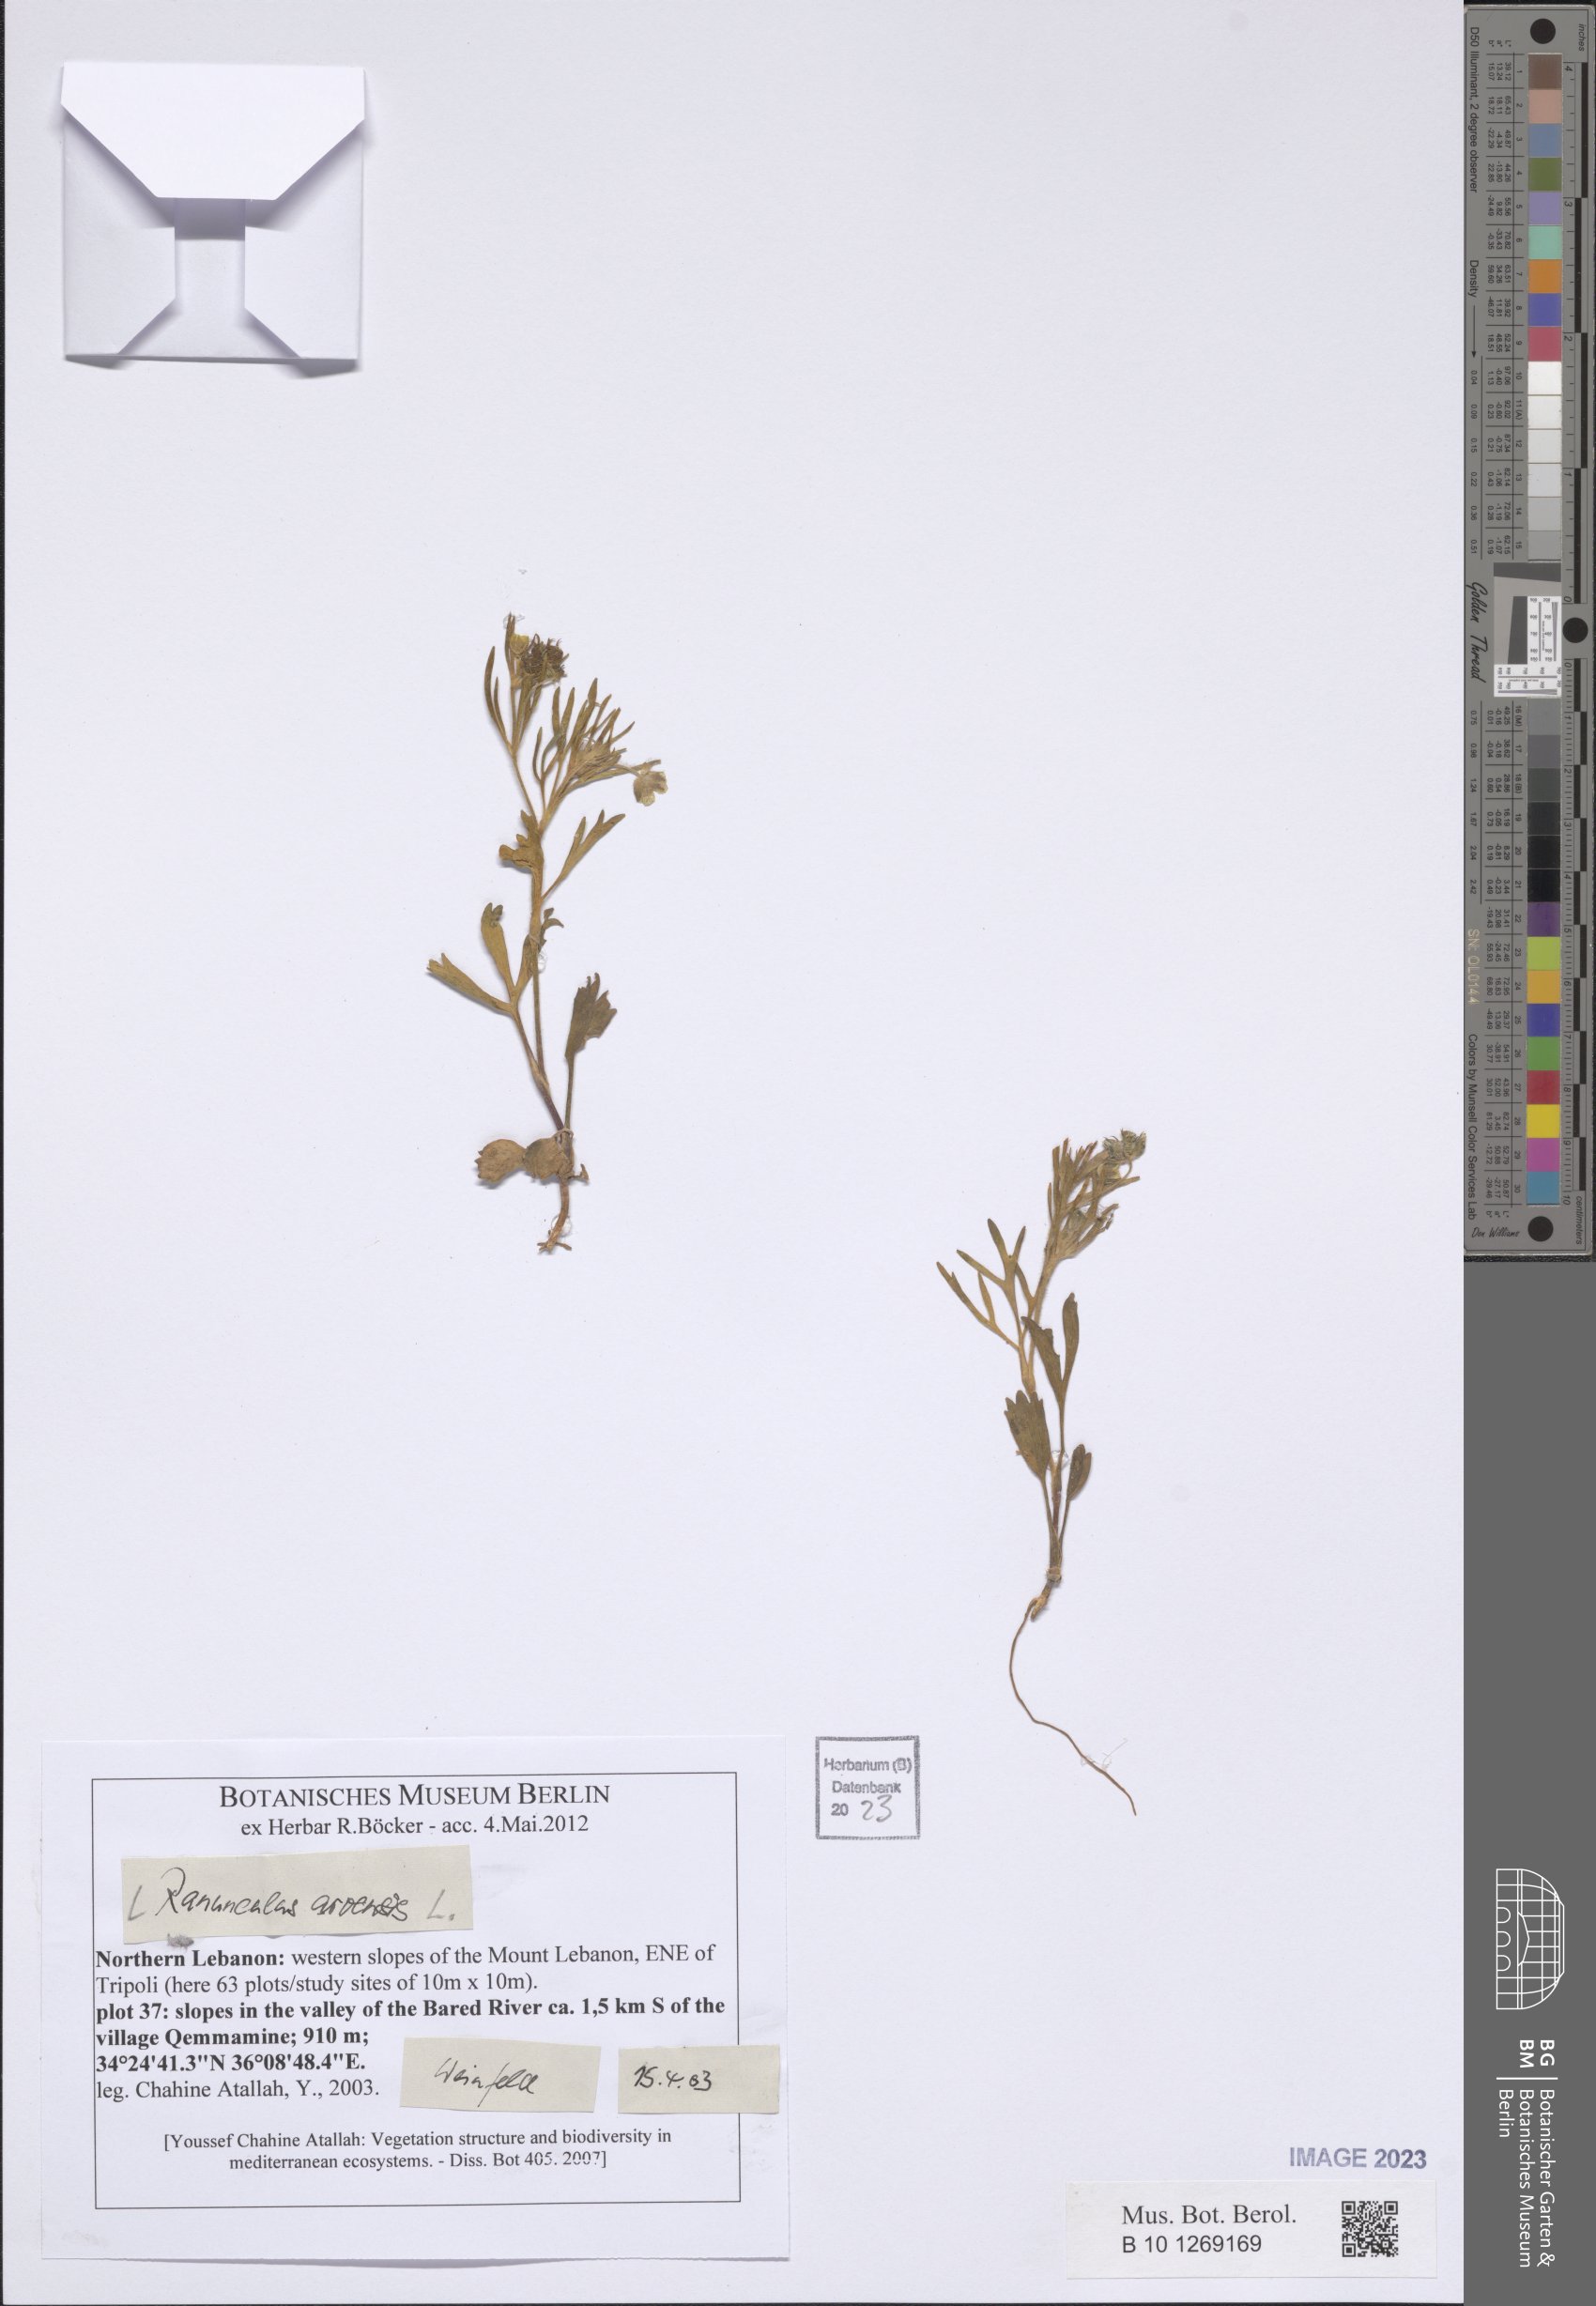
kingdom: Plantae
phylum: Tracheophyta
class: Magnoliopsida
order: Ranunculales
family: Ranunculaceae
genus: Ranunculus
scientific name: Ranunculus arvensis
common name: Corn buttercup
